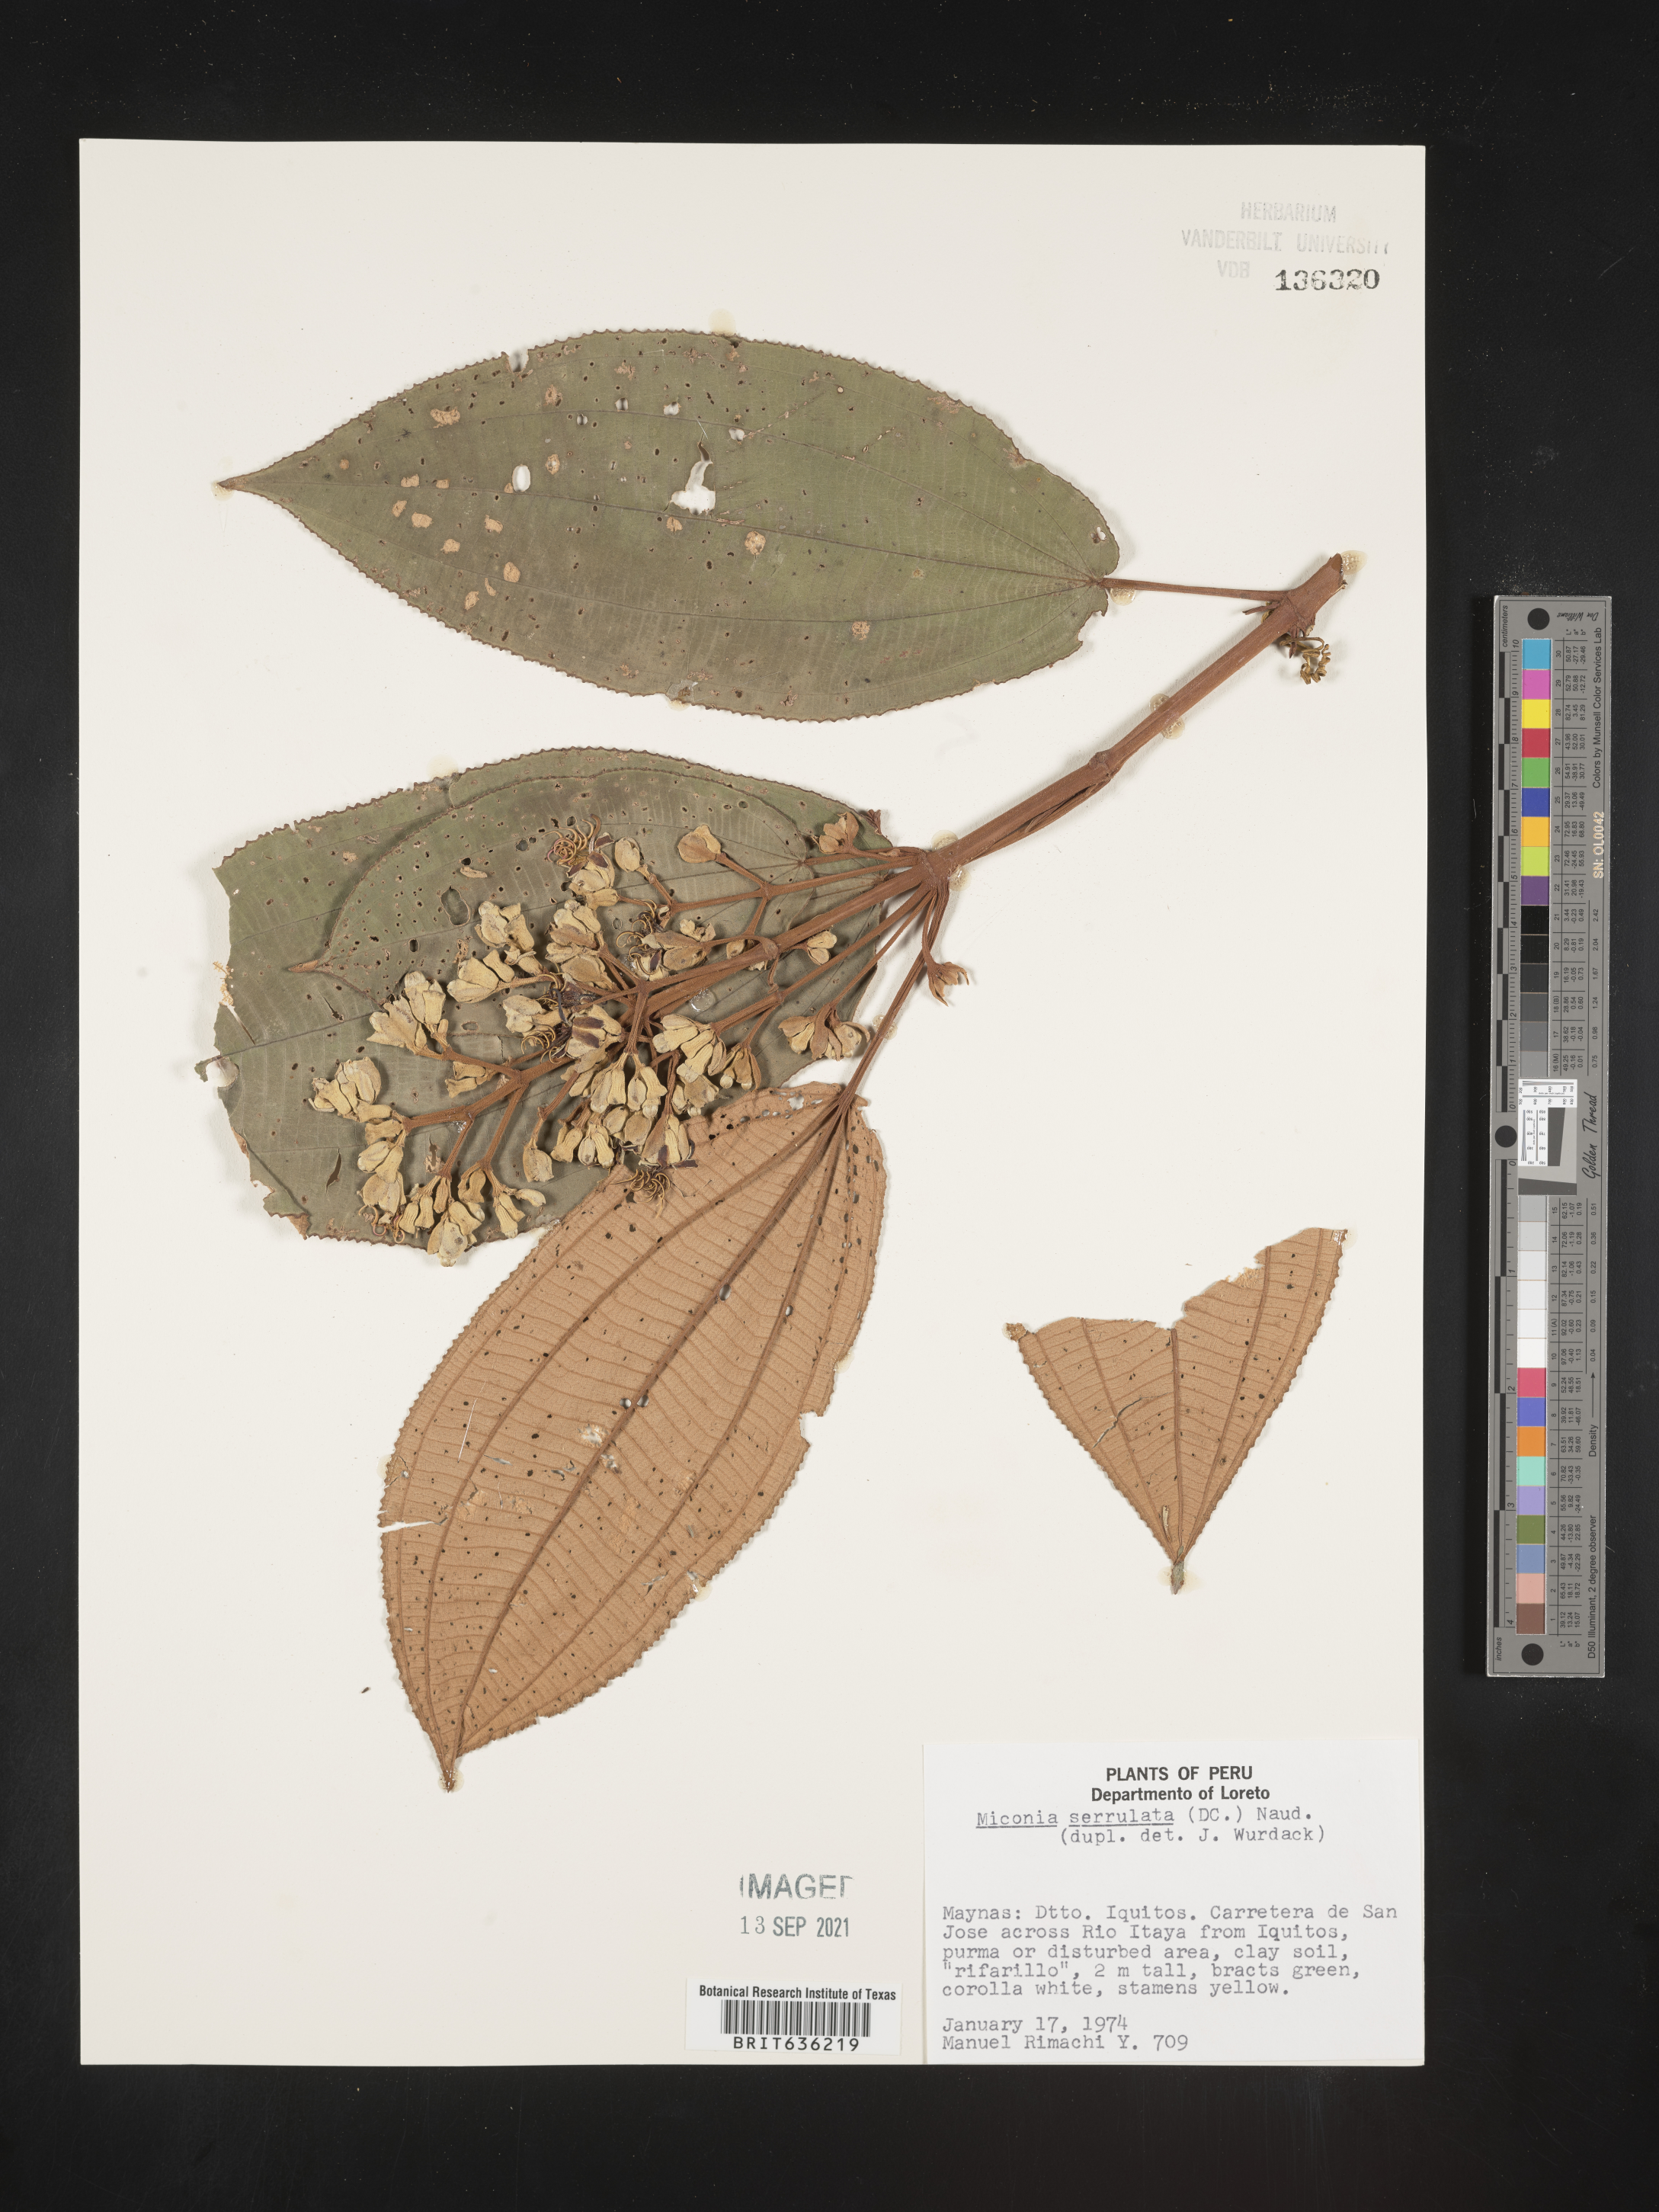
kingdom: Plantae
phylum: Tracheophyta
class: Magnoliopsida
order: Myrtales
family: Melastomataceae
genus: Miconia
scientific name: Miconia
